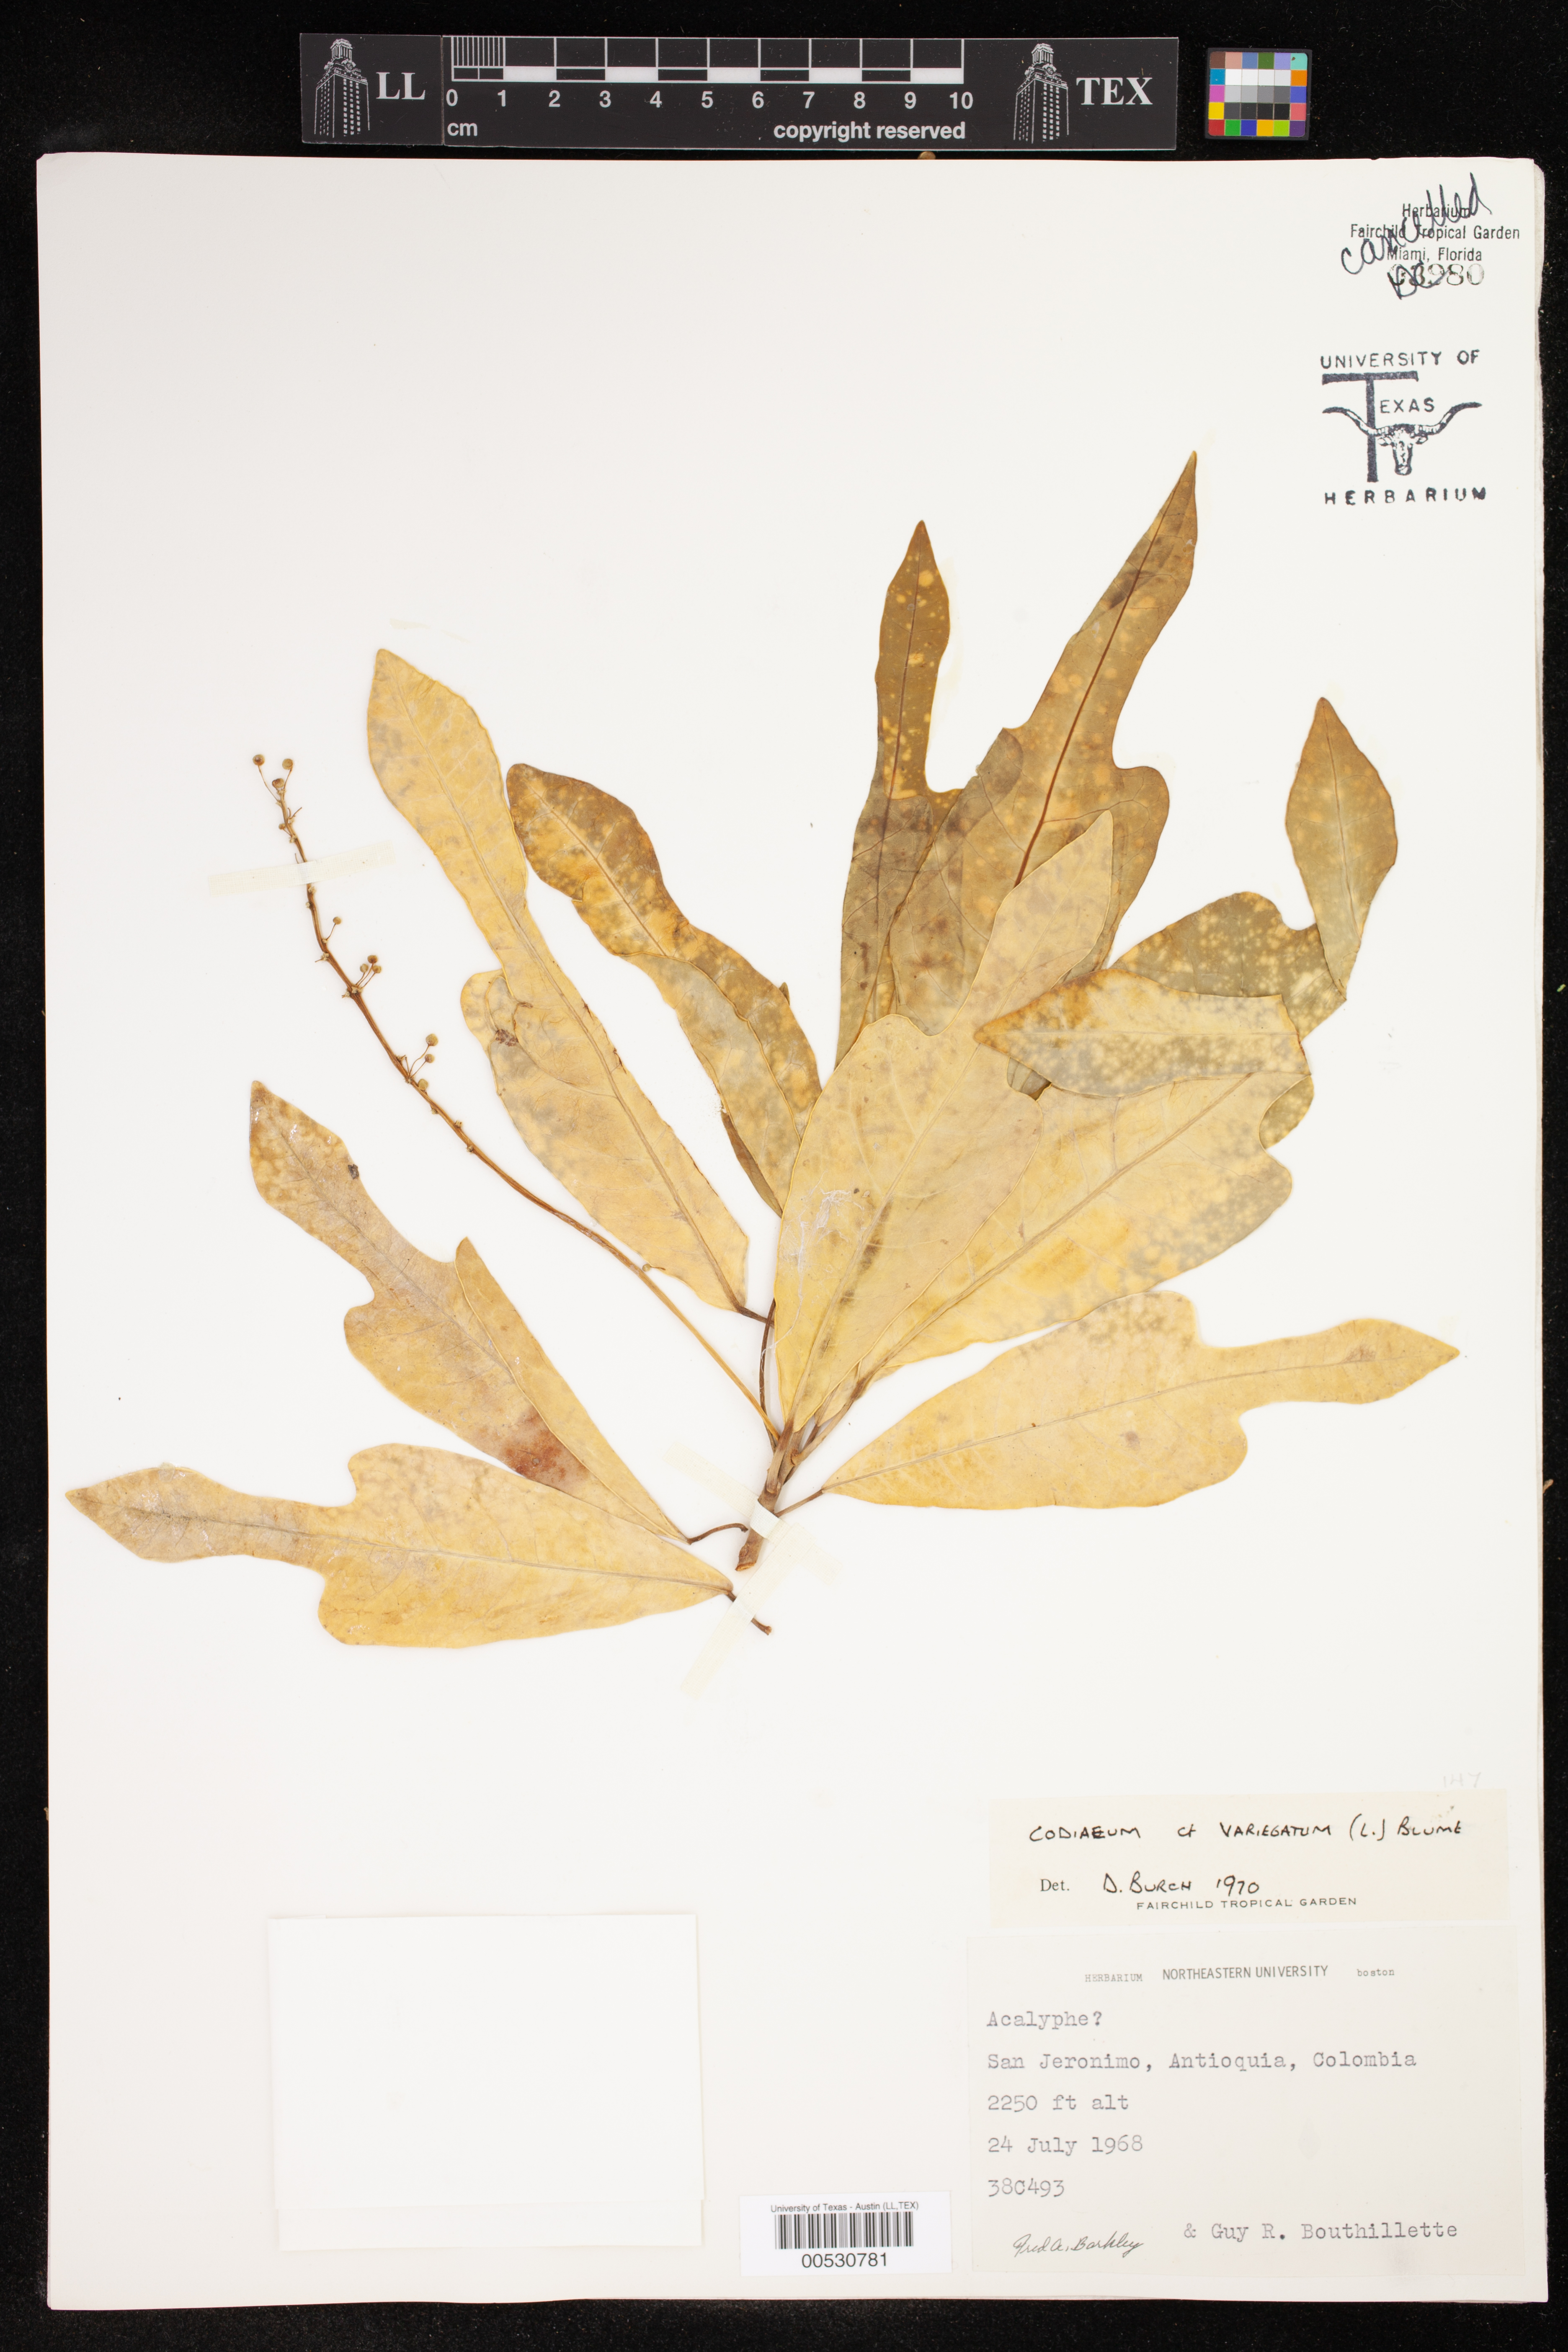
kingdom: Plantae
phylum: Tracheophyta
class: Magnoliopsida
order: Malpighiales
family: Euphorbiaceae
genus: Codiaeum
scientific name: Codiaeum variegatum
